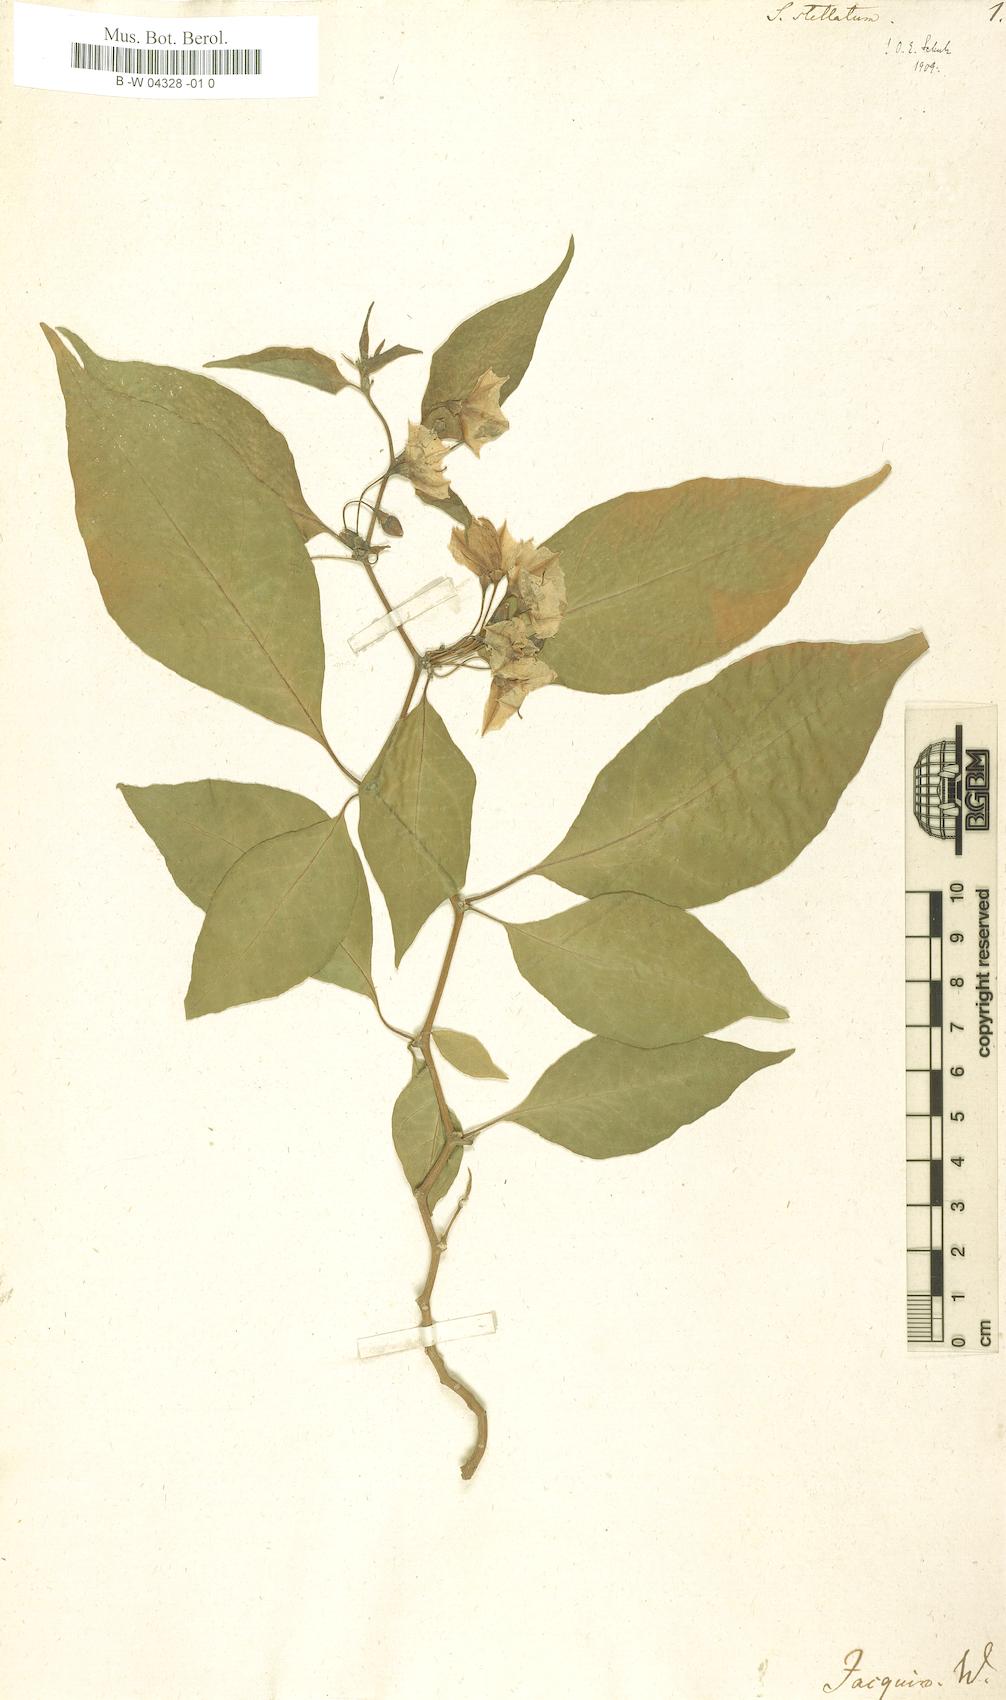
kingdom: Plantae
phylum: Tracheophyta
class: Magnoliopsida
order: Solanales
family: Solanaceae
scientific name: Solanaceae
